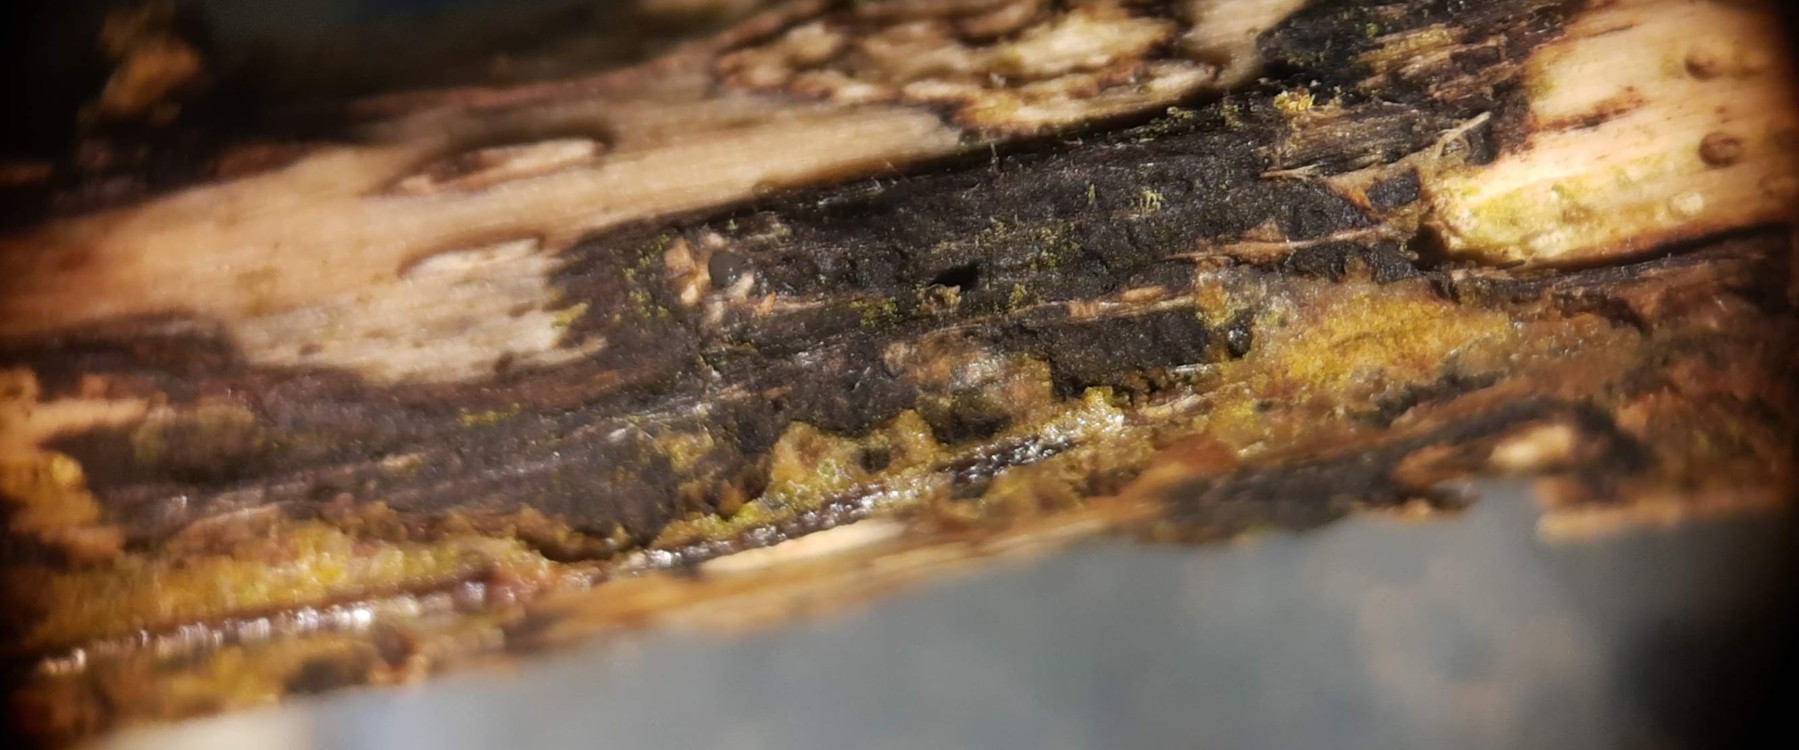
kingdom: Fungi
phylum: Ascomycota
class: Sordariomycetes
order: Diaporthales
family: Diaporthaceae
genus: Diaporthe
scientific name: Diaporthe pardalota
